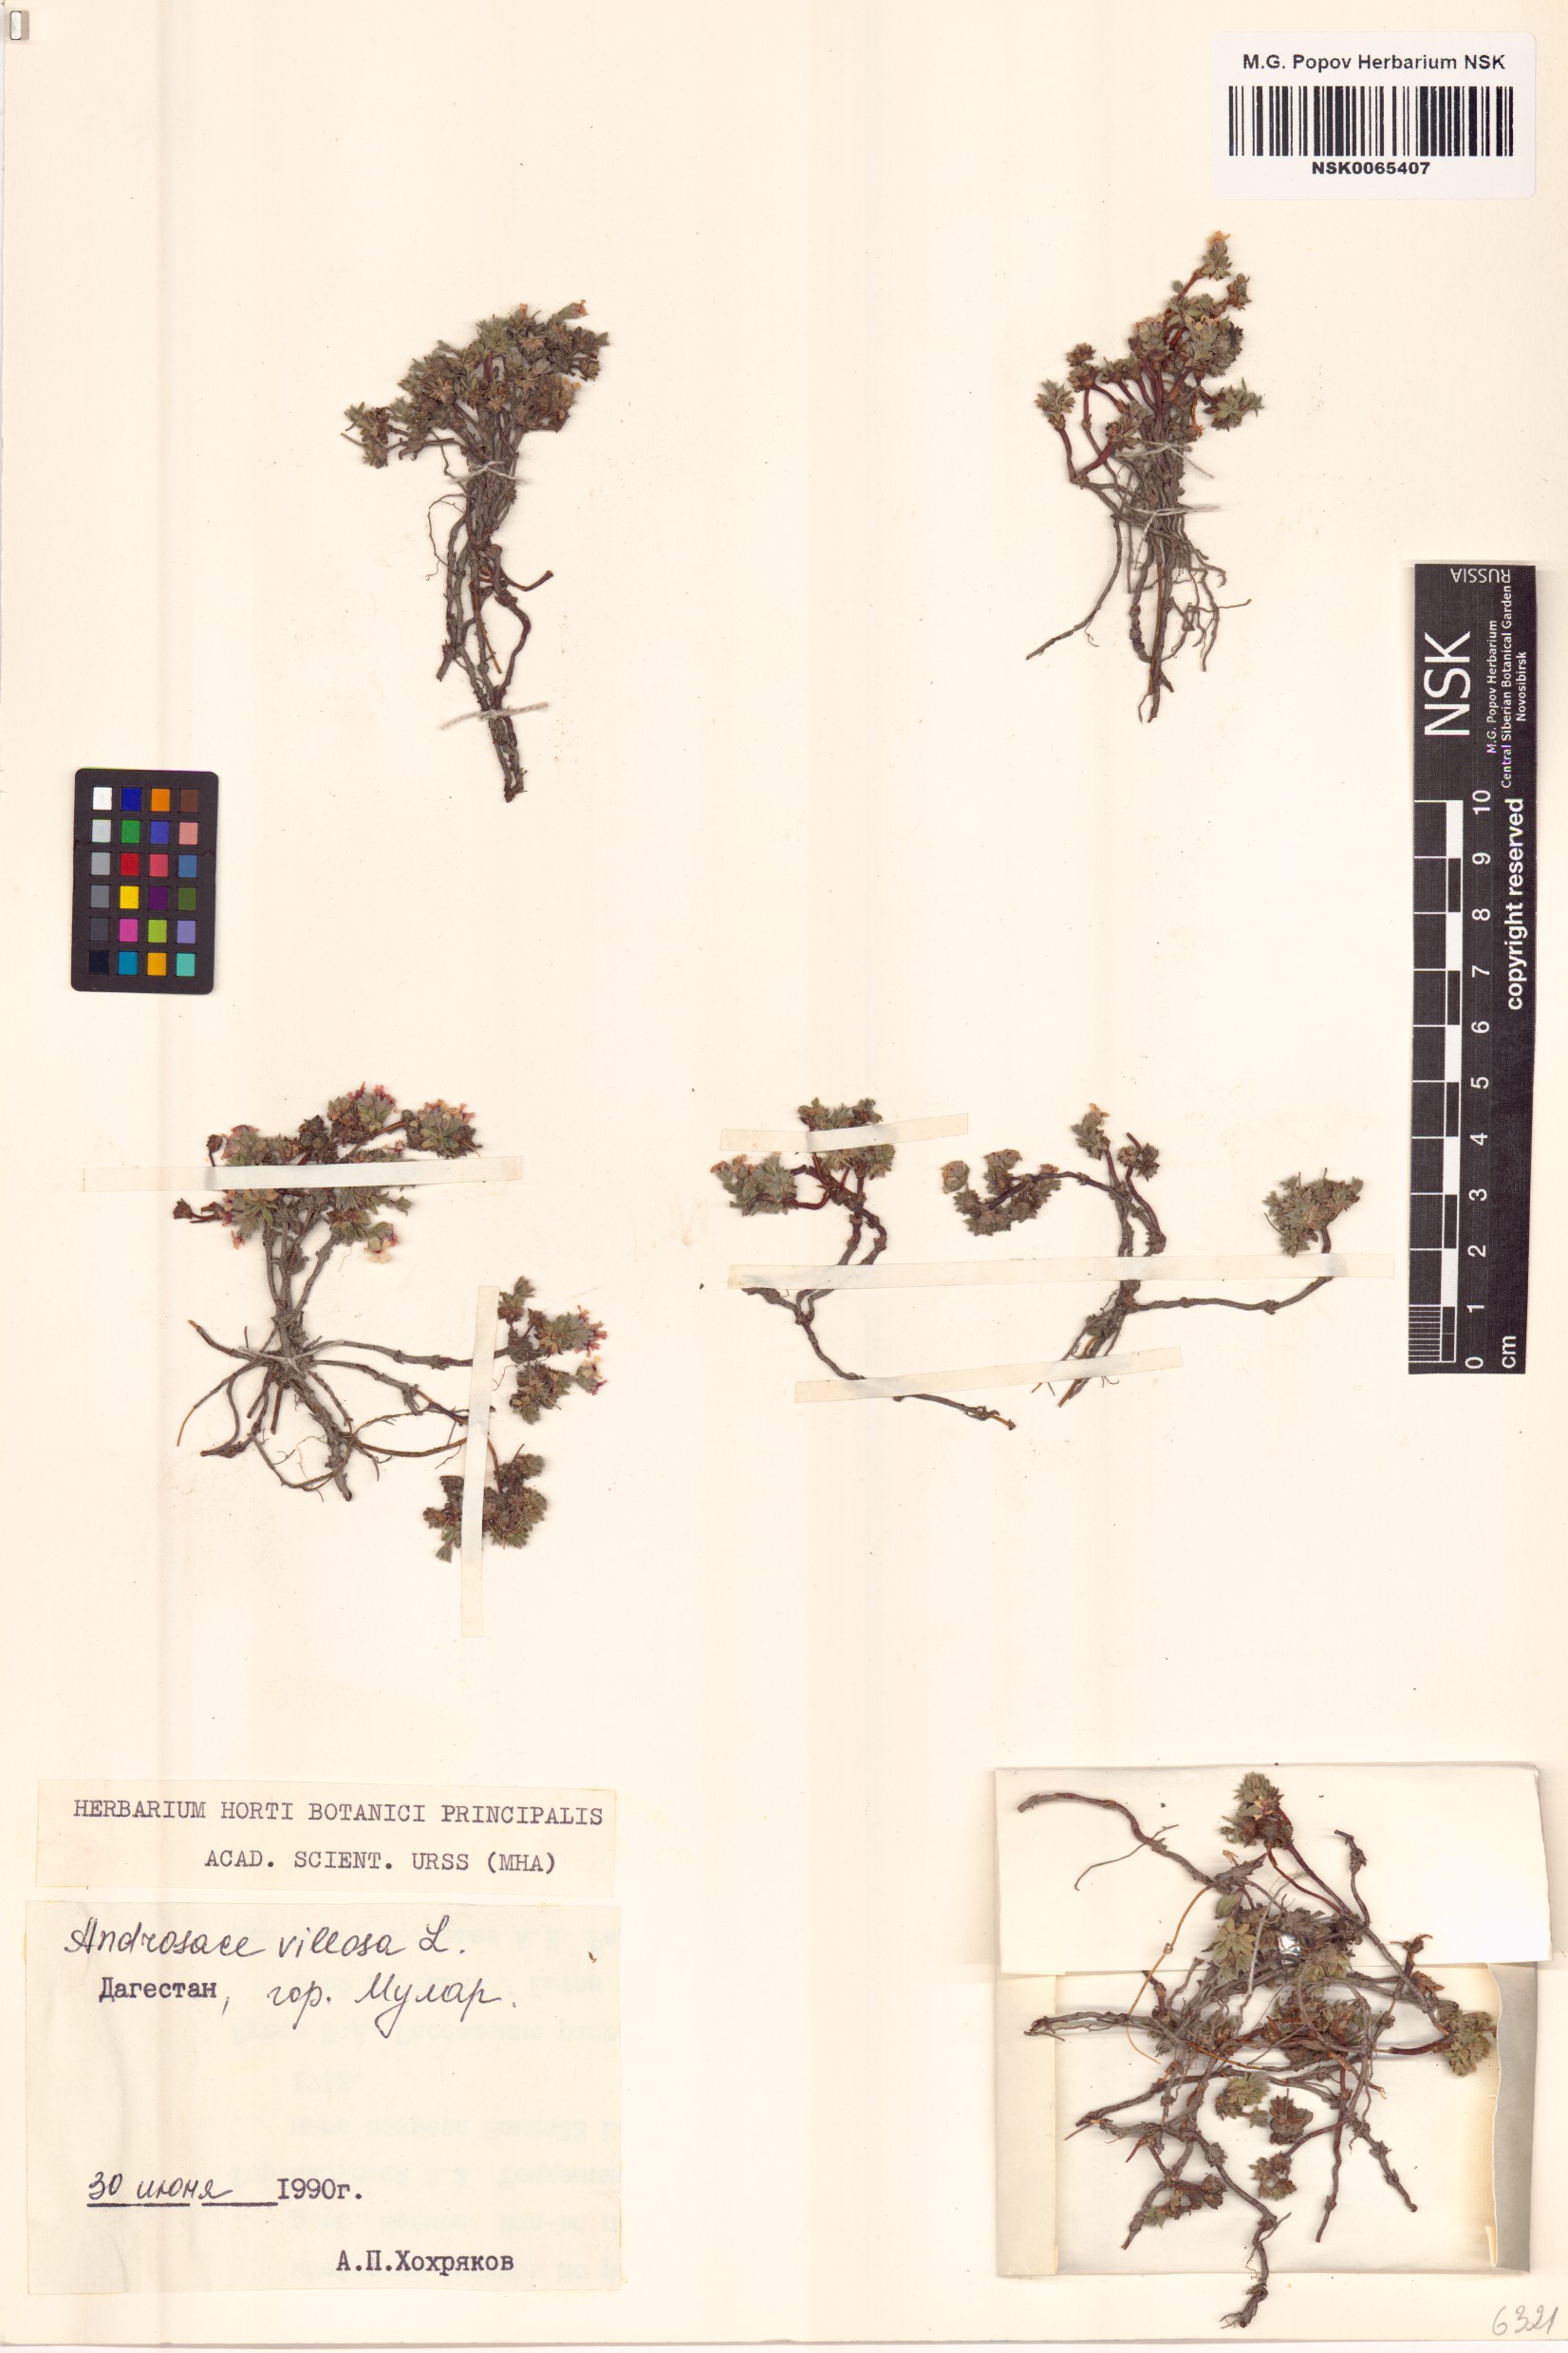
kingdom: Plantae
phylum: Tracheophyta
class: Magnoliopsida
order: Ericales
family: Primulaceae
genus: Androsace
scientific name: Androsace villosa
